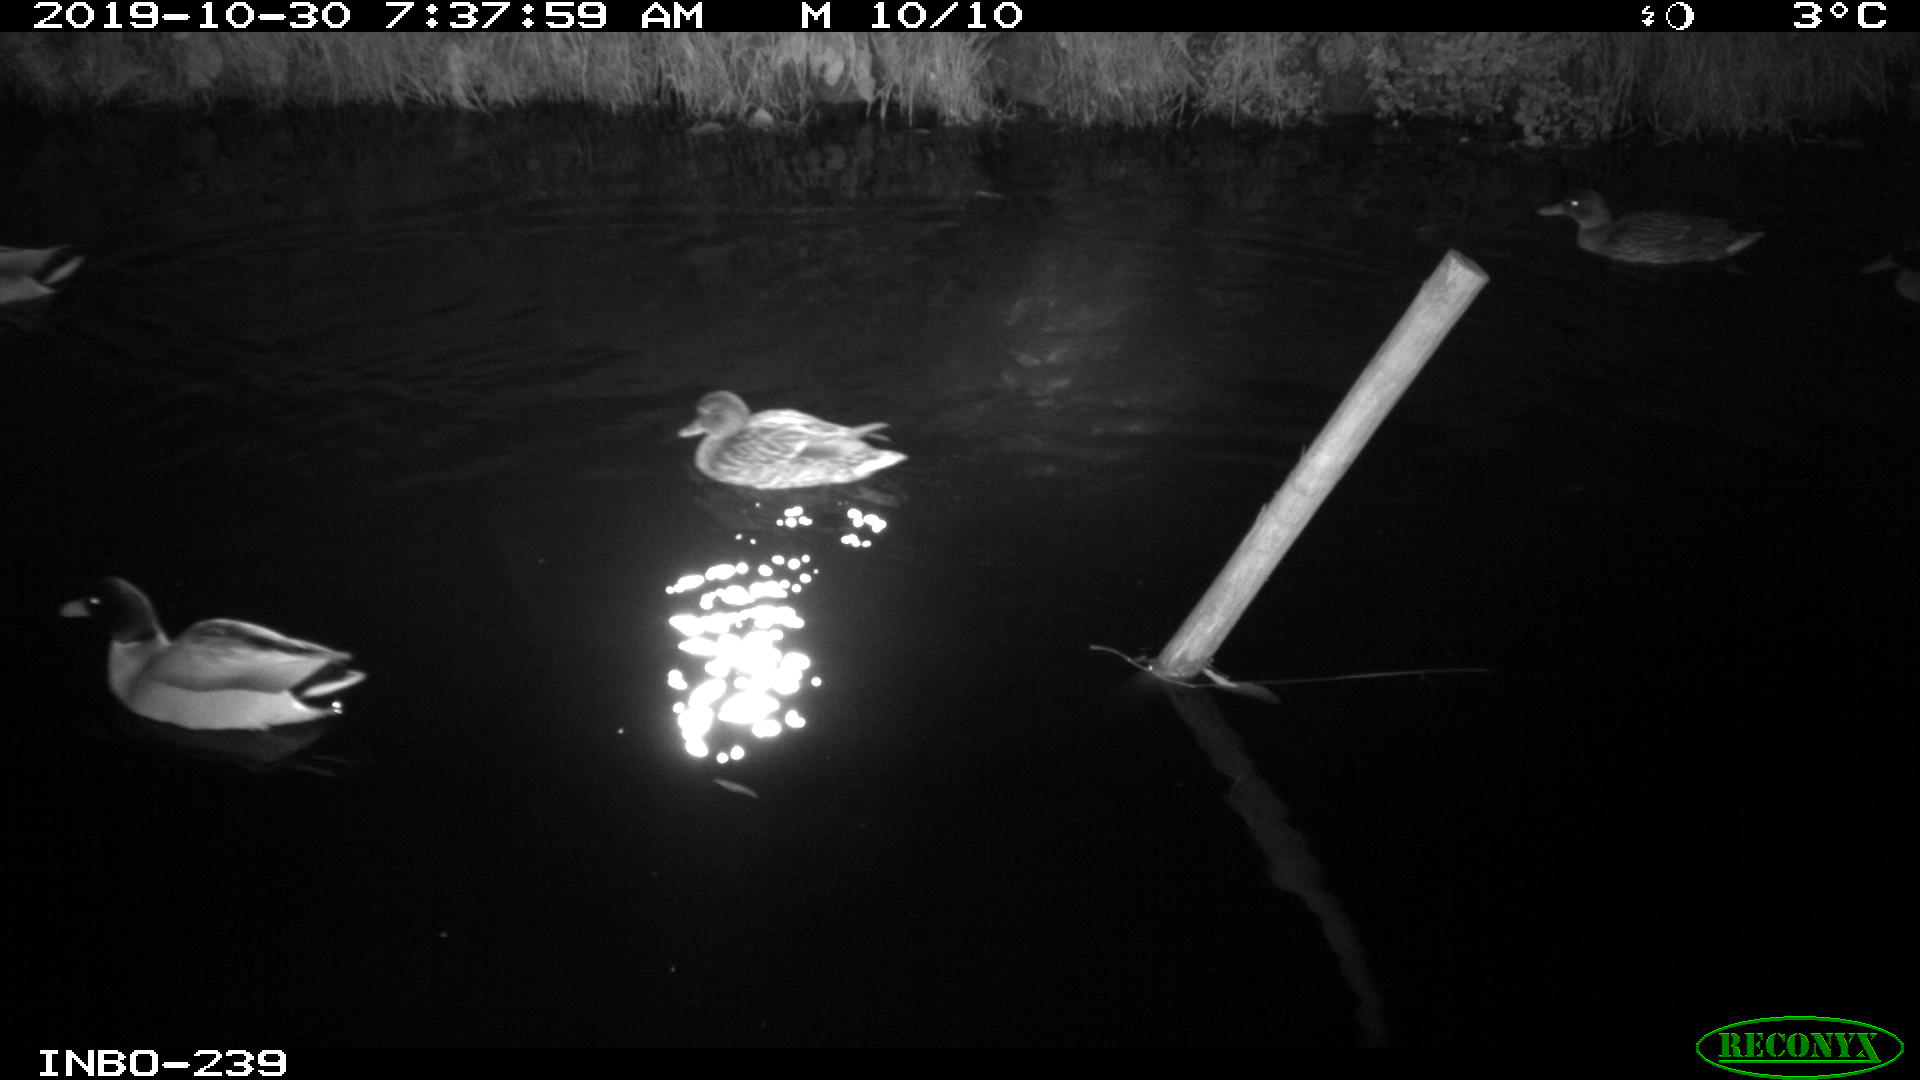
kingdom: Animalia
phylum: Chordata
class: Aves
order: Anseriformes
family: Anatidae
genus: Anas
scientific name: Anas platyrhynchos
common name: Mallard
